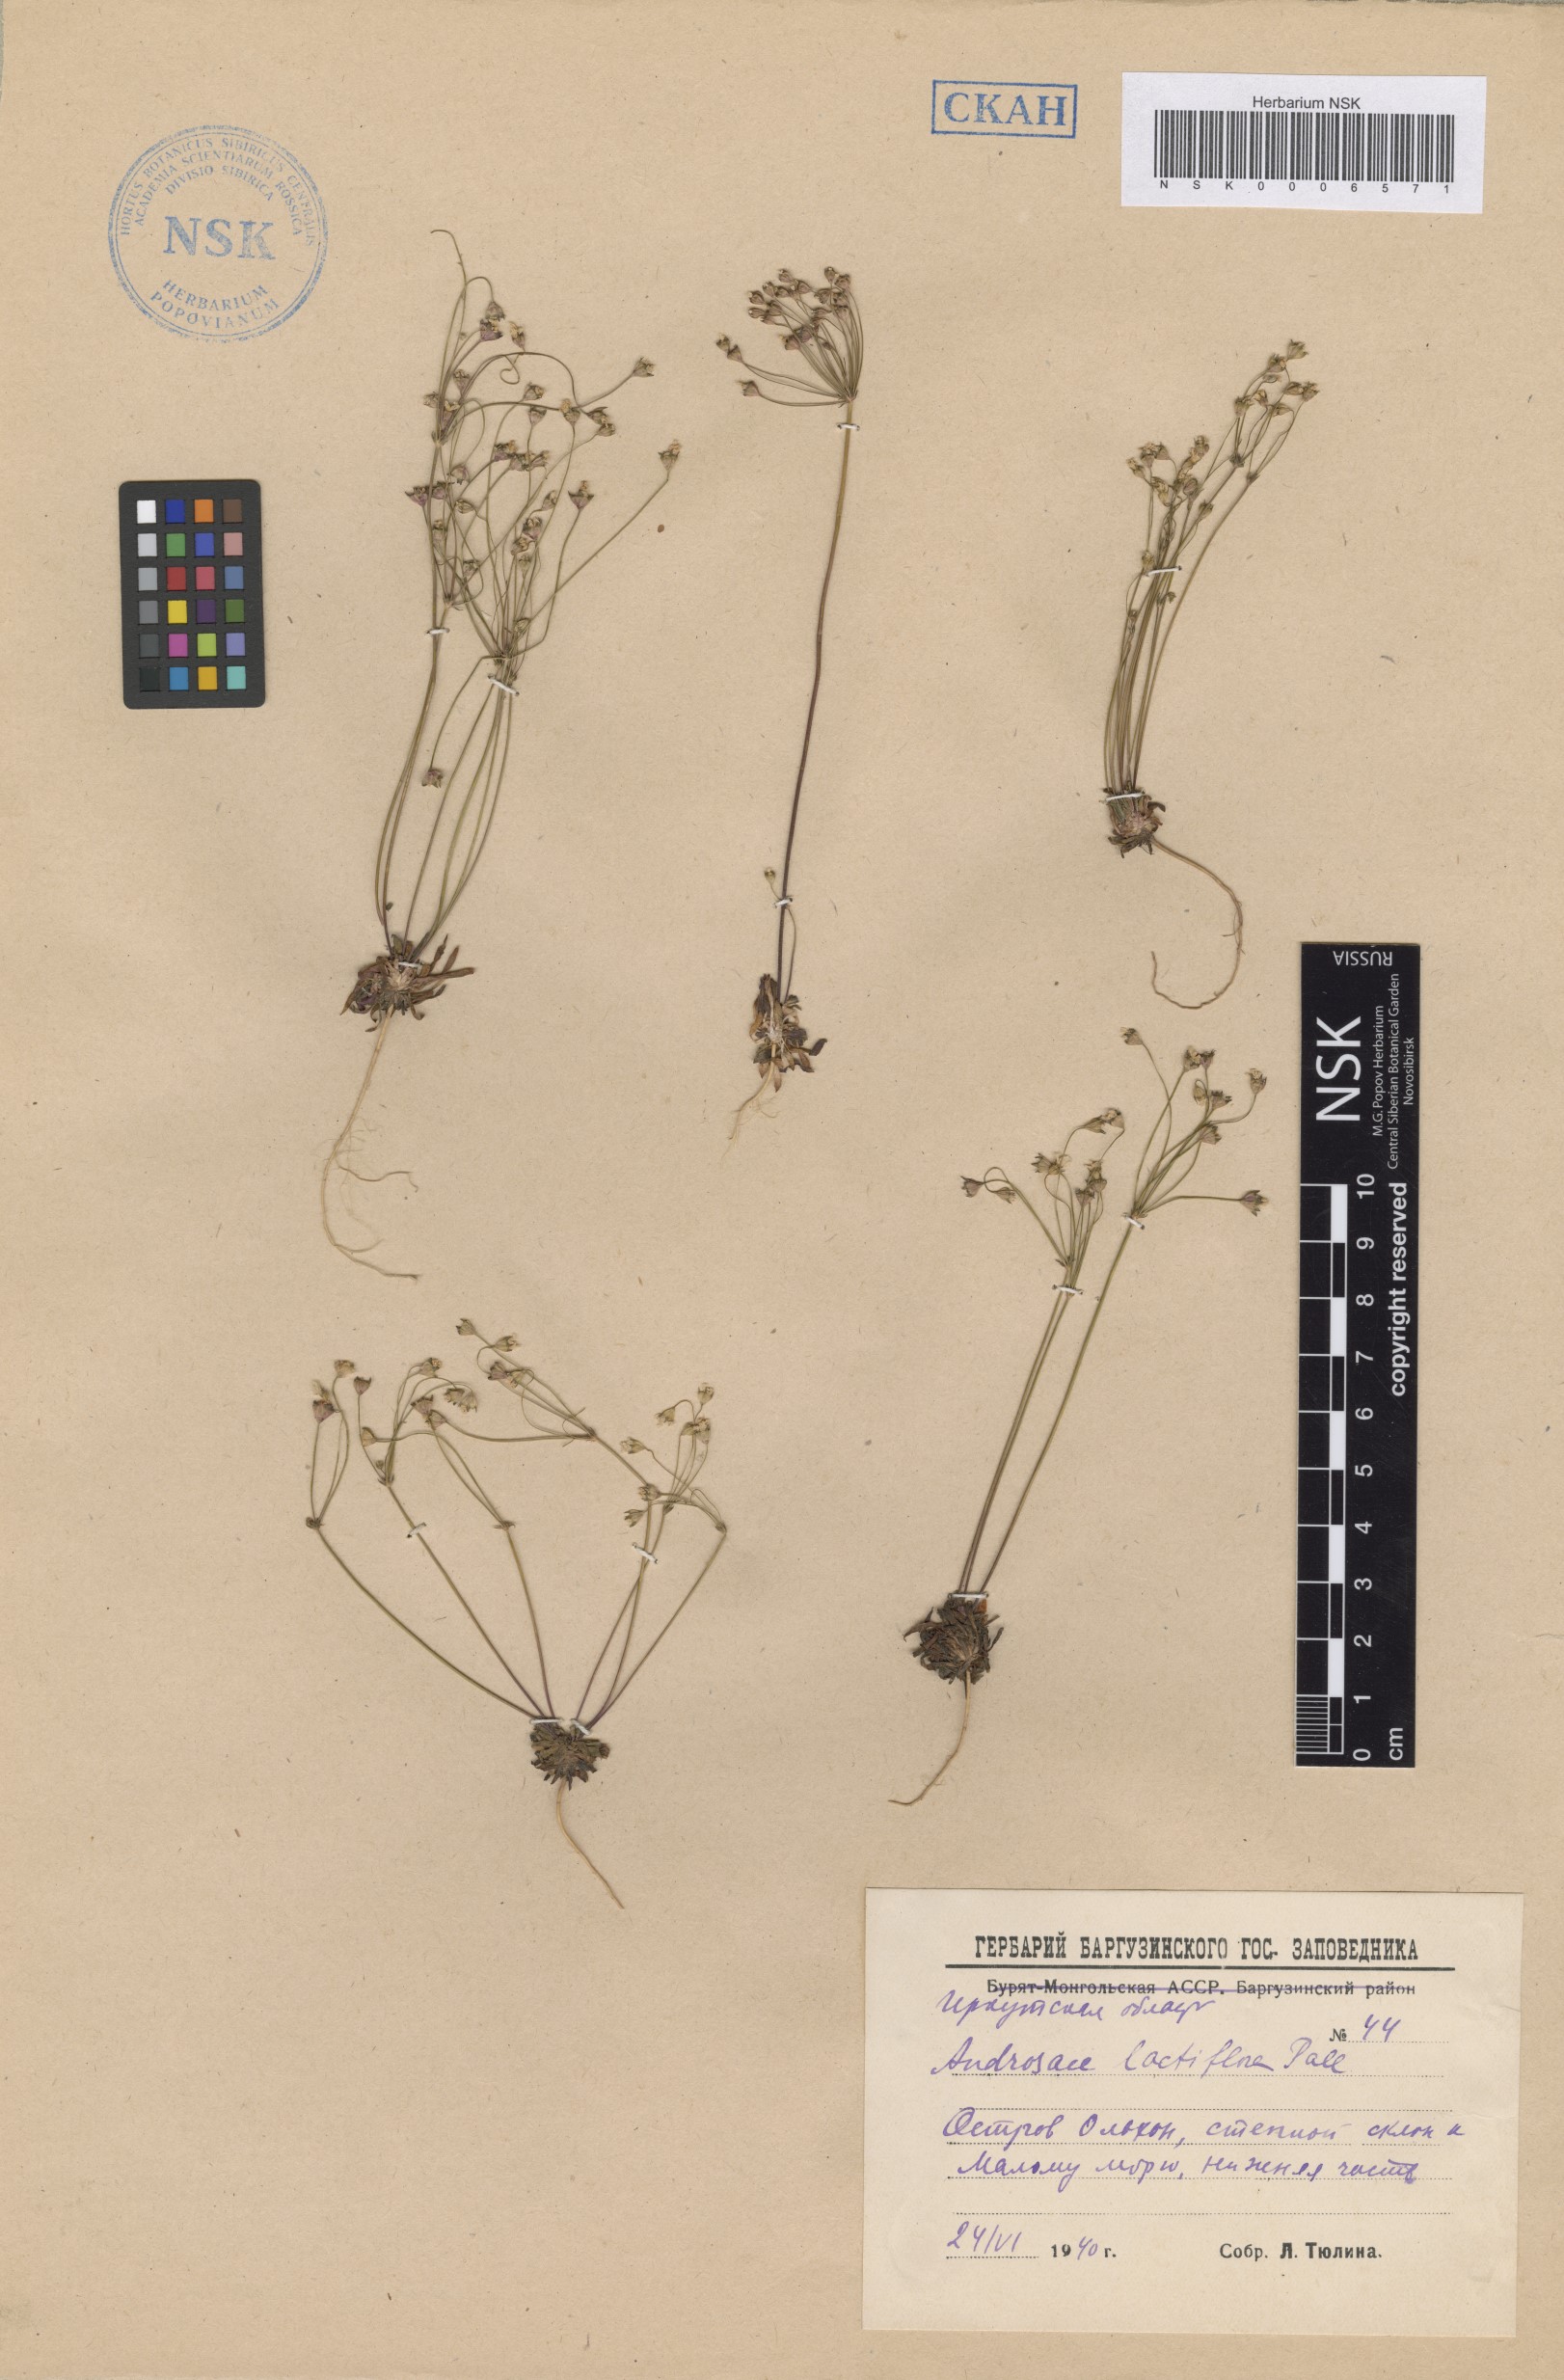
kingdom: Plantae
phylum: Tracheophyta
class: Magnoliopsida
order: Ericales
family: Primulaceae
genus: Androsace
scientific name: Androsace lactiflora
